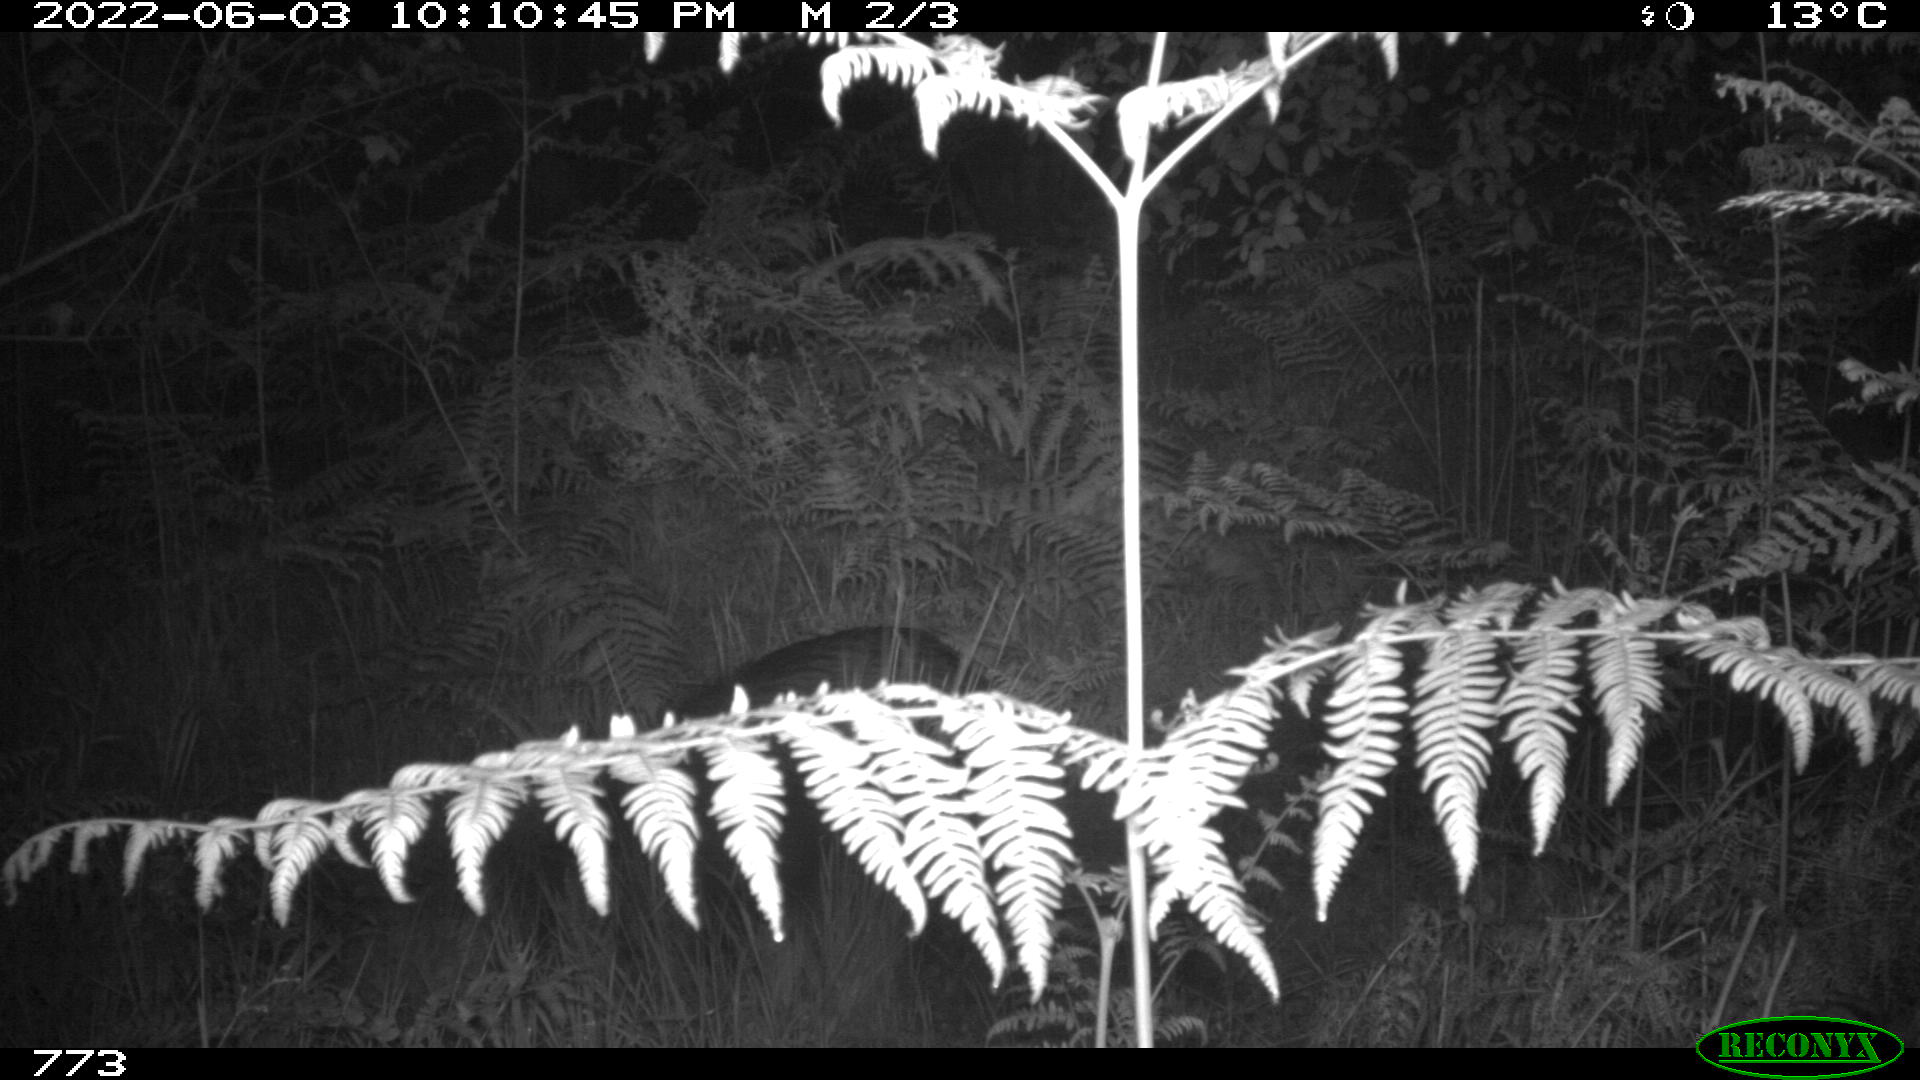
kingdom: Animalia
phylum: Chordata
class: Mammalia
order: Artiodactyla
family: Suidae
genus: Sus
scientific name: Sus scrofa
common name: Wild boar
